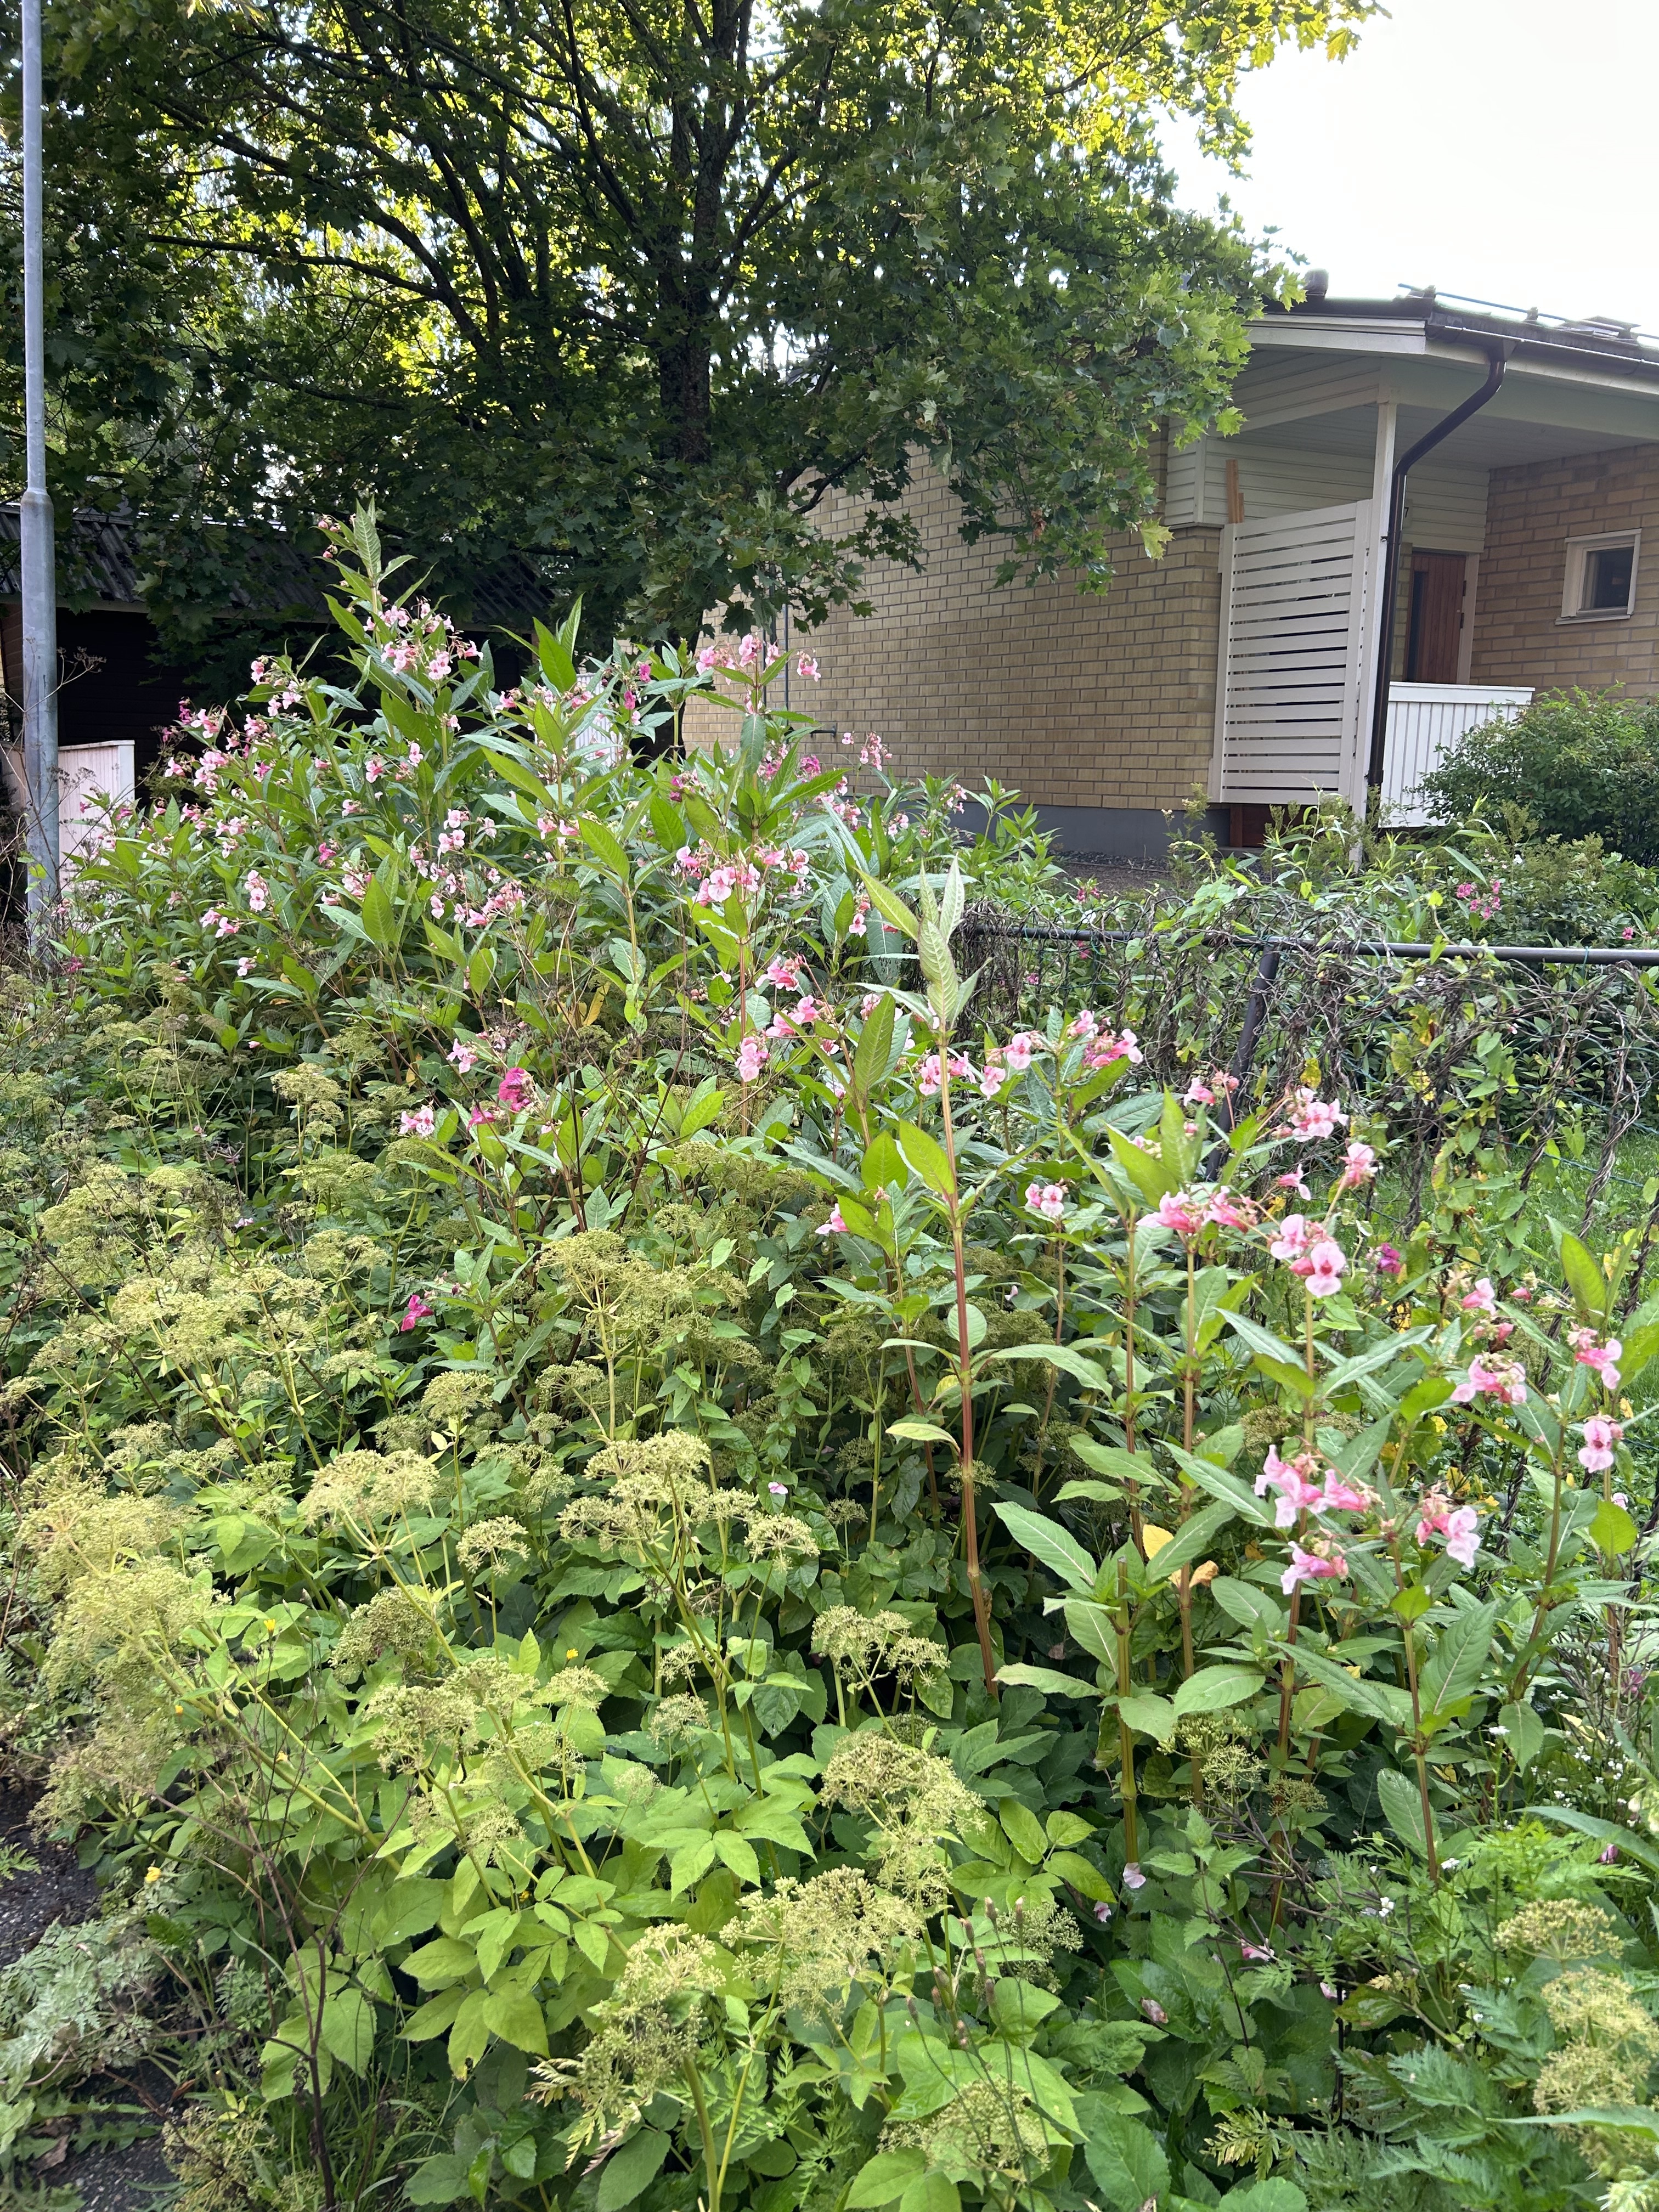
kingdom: Plantae
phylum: Tracheophyta
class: Magnoliopsida
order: Ericales
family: Balsaminaceae
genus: Impatiens
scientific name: Impatiens glandulifera
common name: Himalayan balsam
